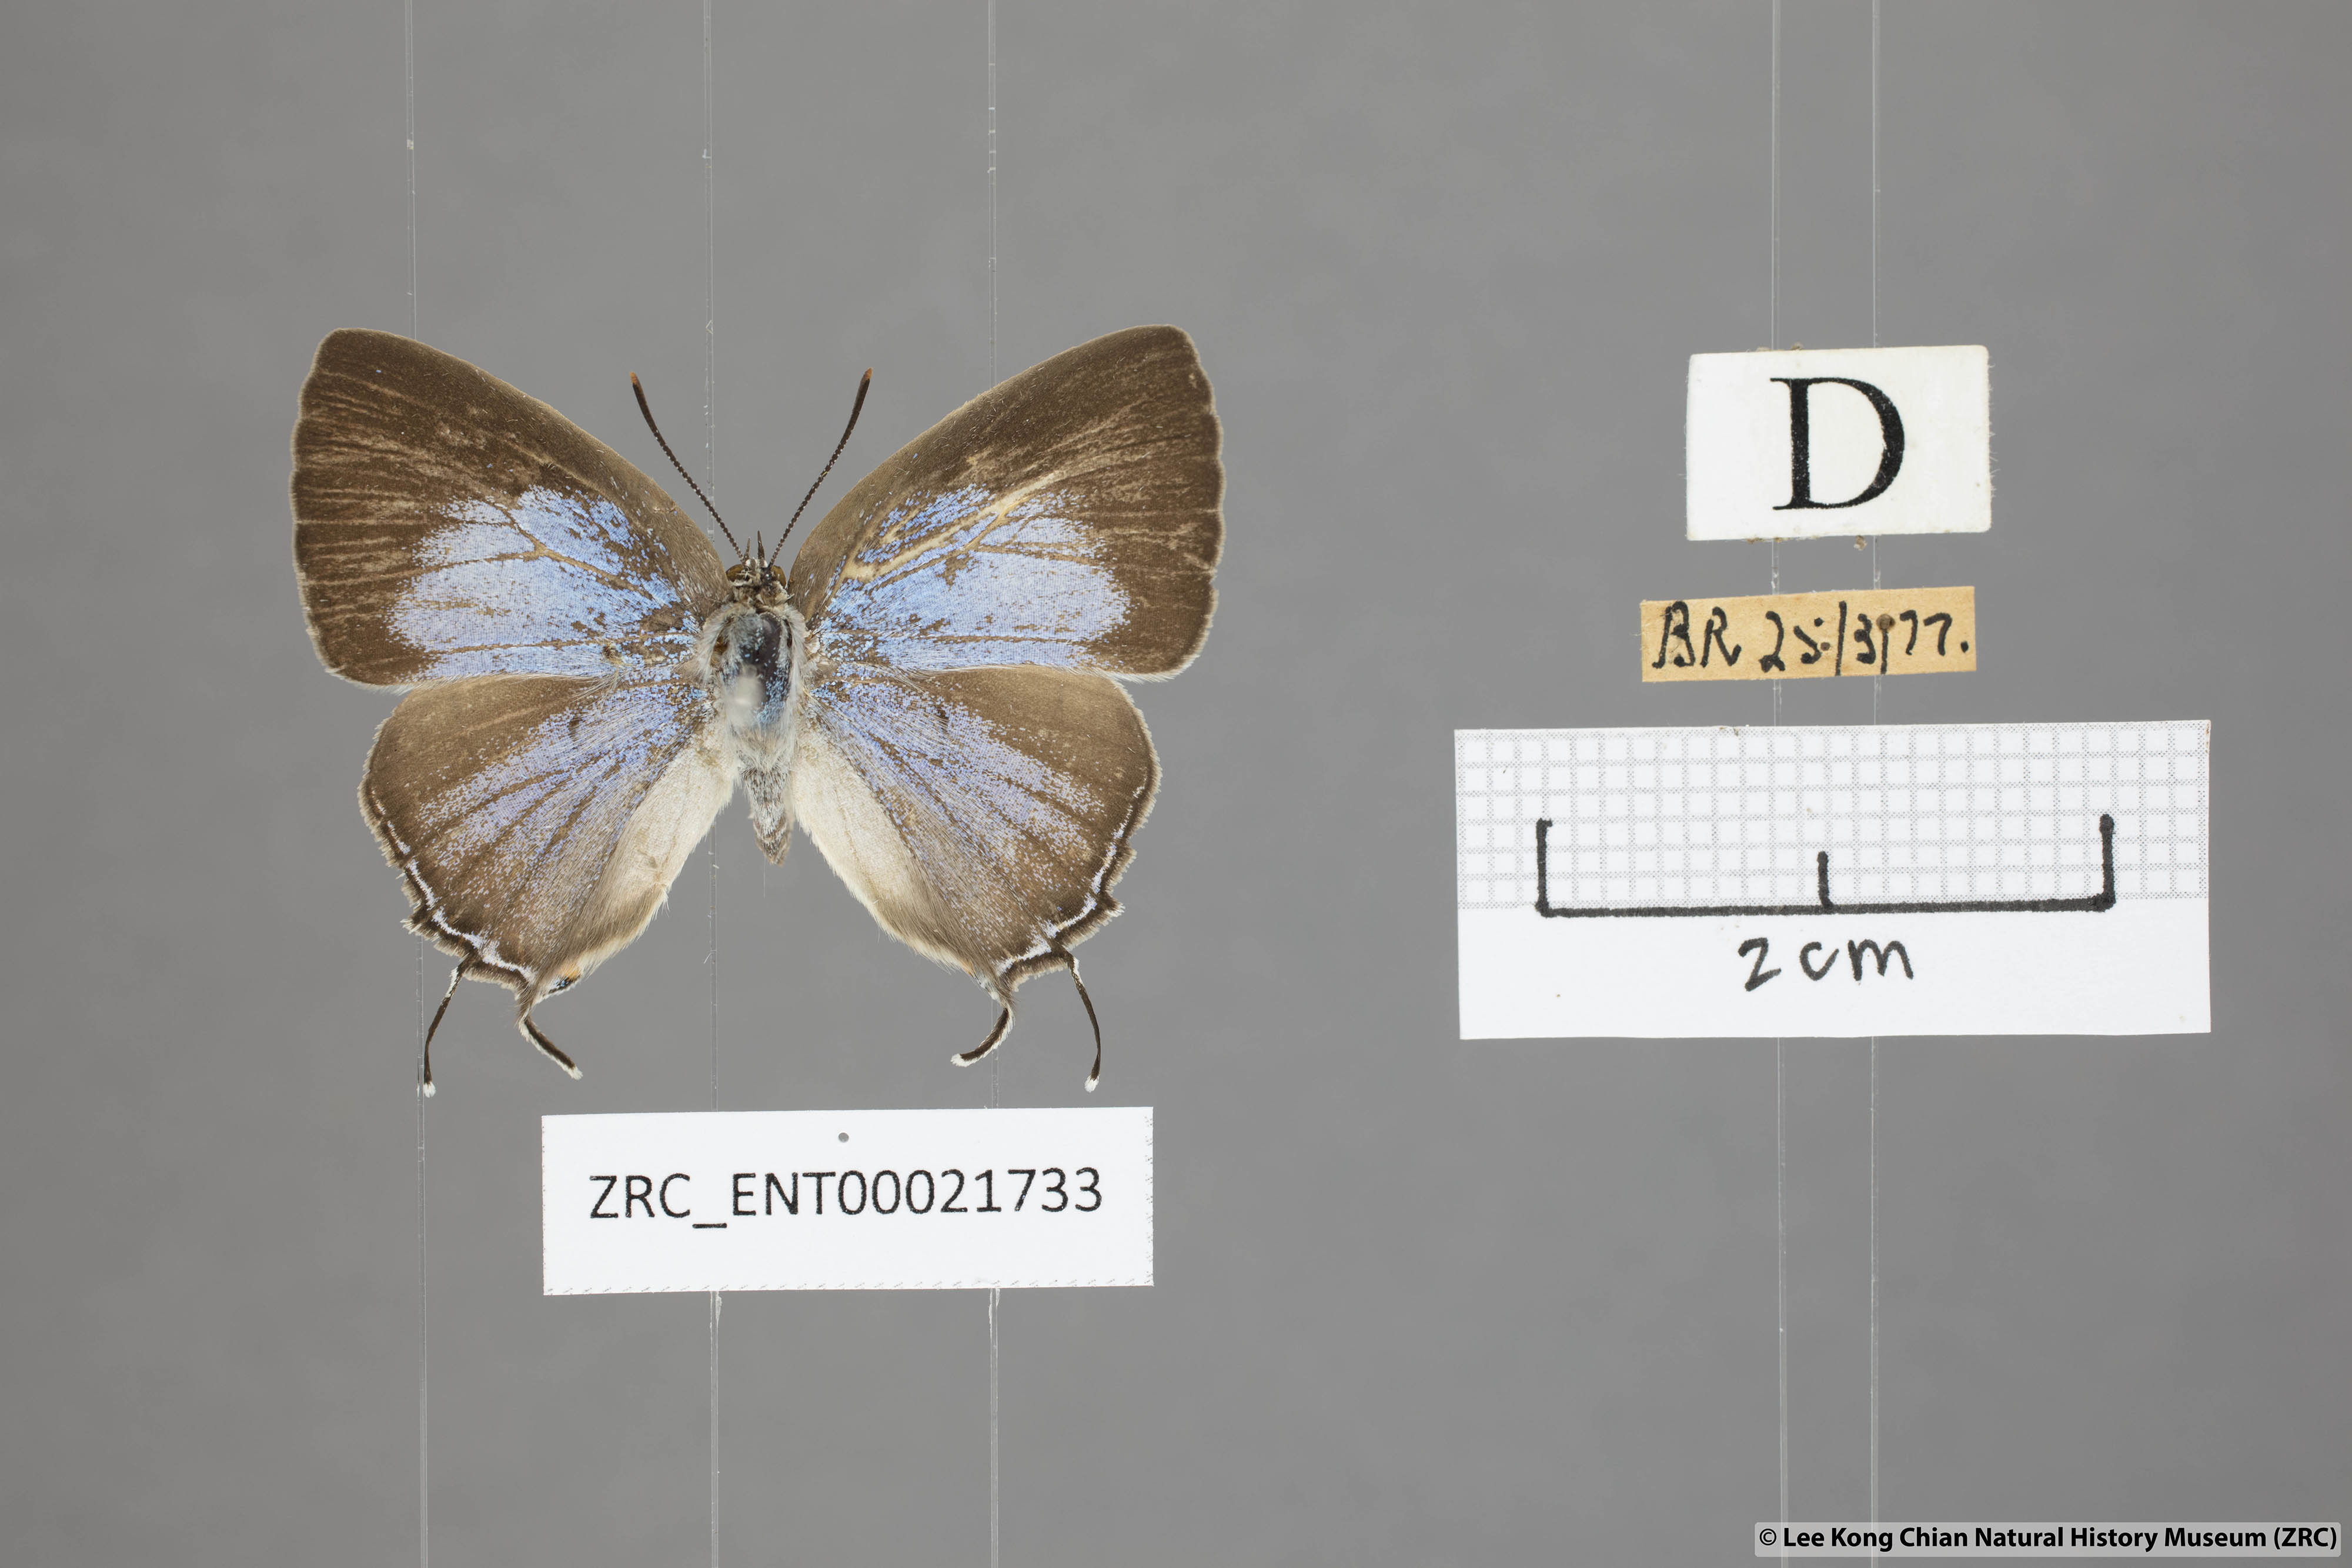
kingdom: Animalia
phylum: Arthropoda
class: Insecta
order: Lepidoptera
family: Lycaenidae
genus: Pratapa
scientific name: Pratapa deva
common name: White royal
